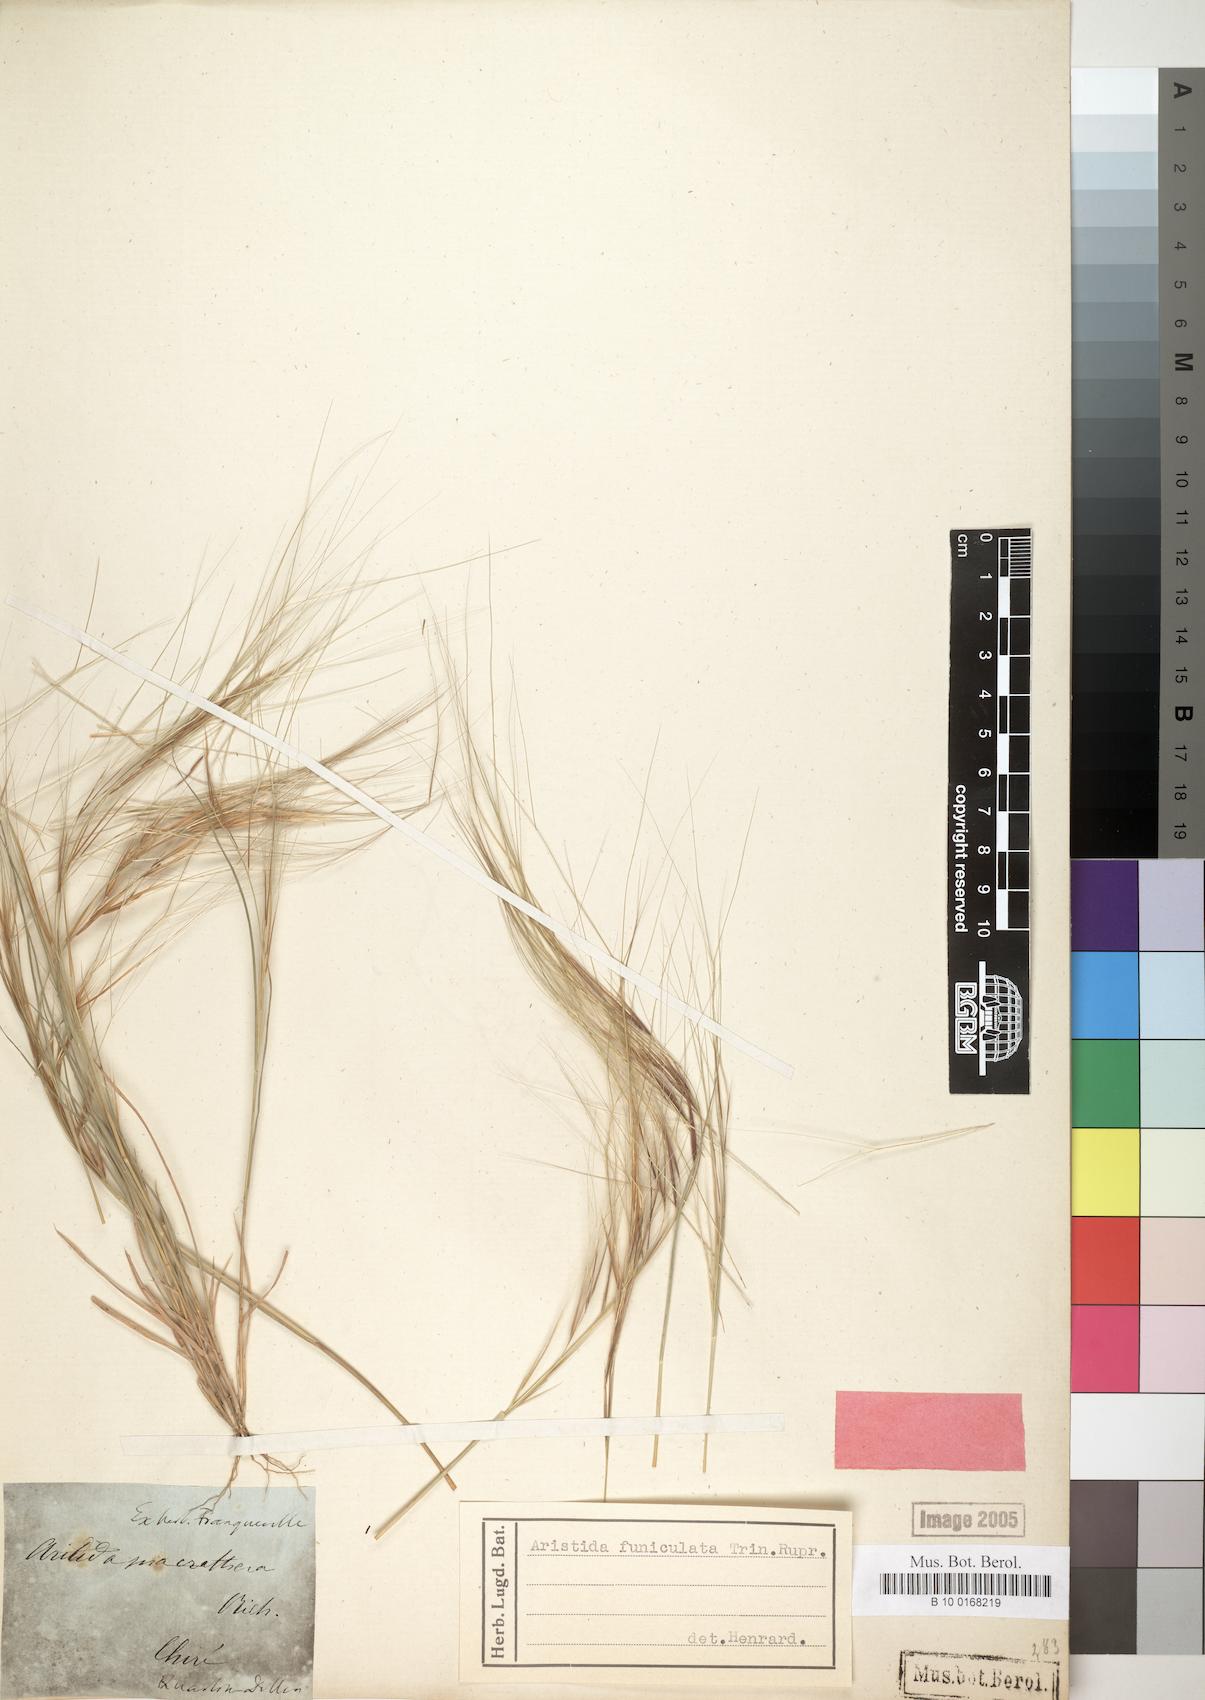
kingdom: Plantae
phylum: Tracheophyta
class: Liliopsida
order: Poales
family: Poaceae
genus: Aristida
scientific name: Aristida funiculata
